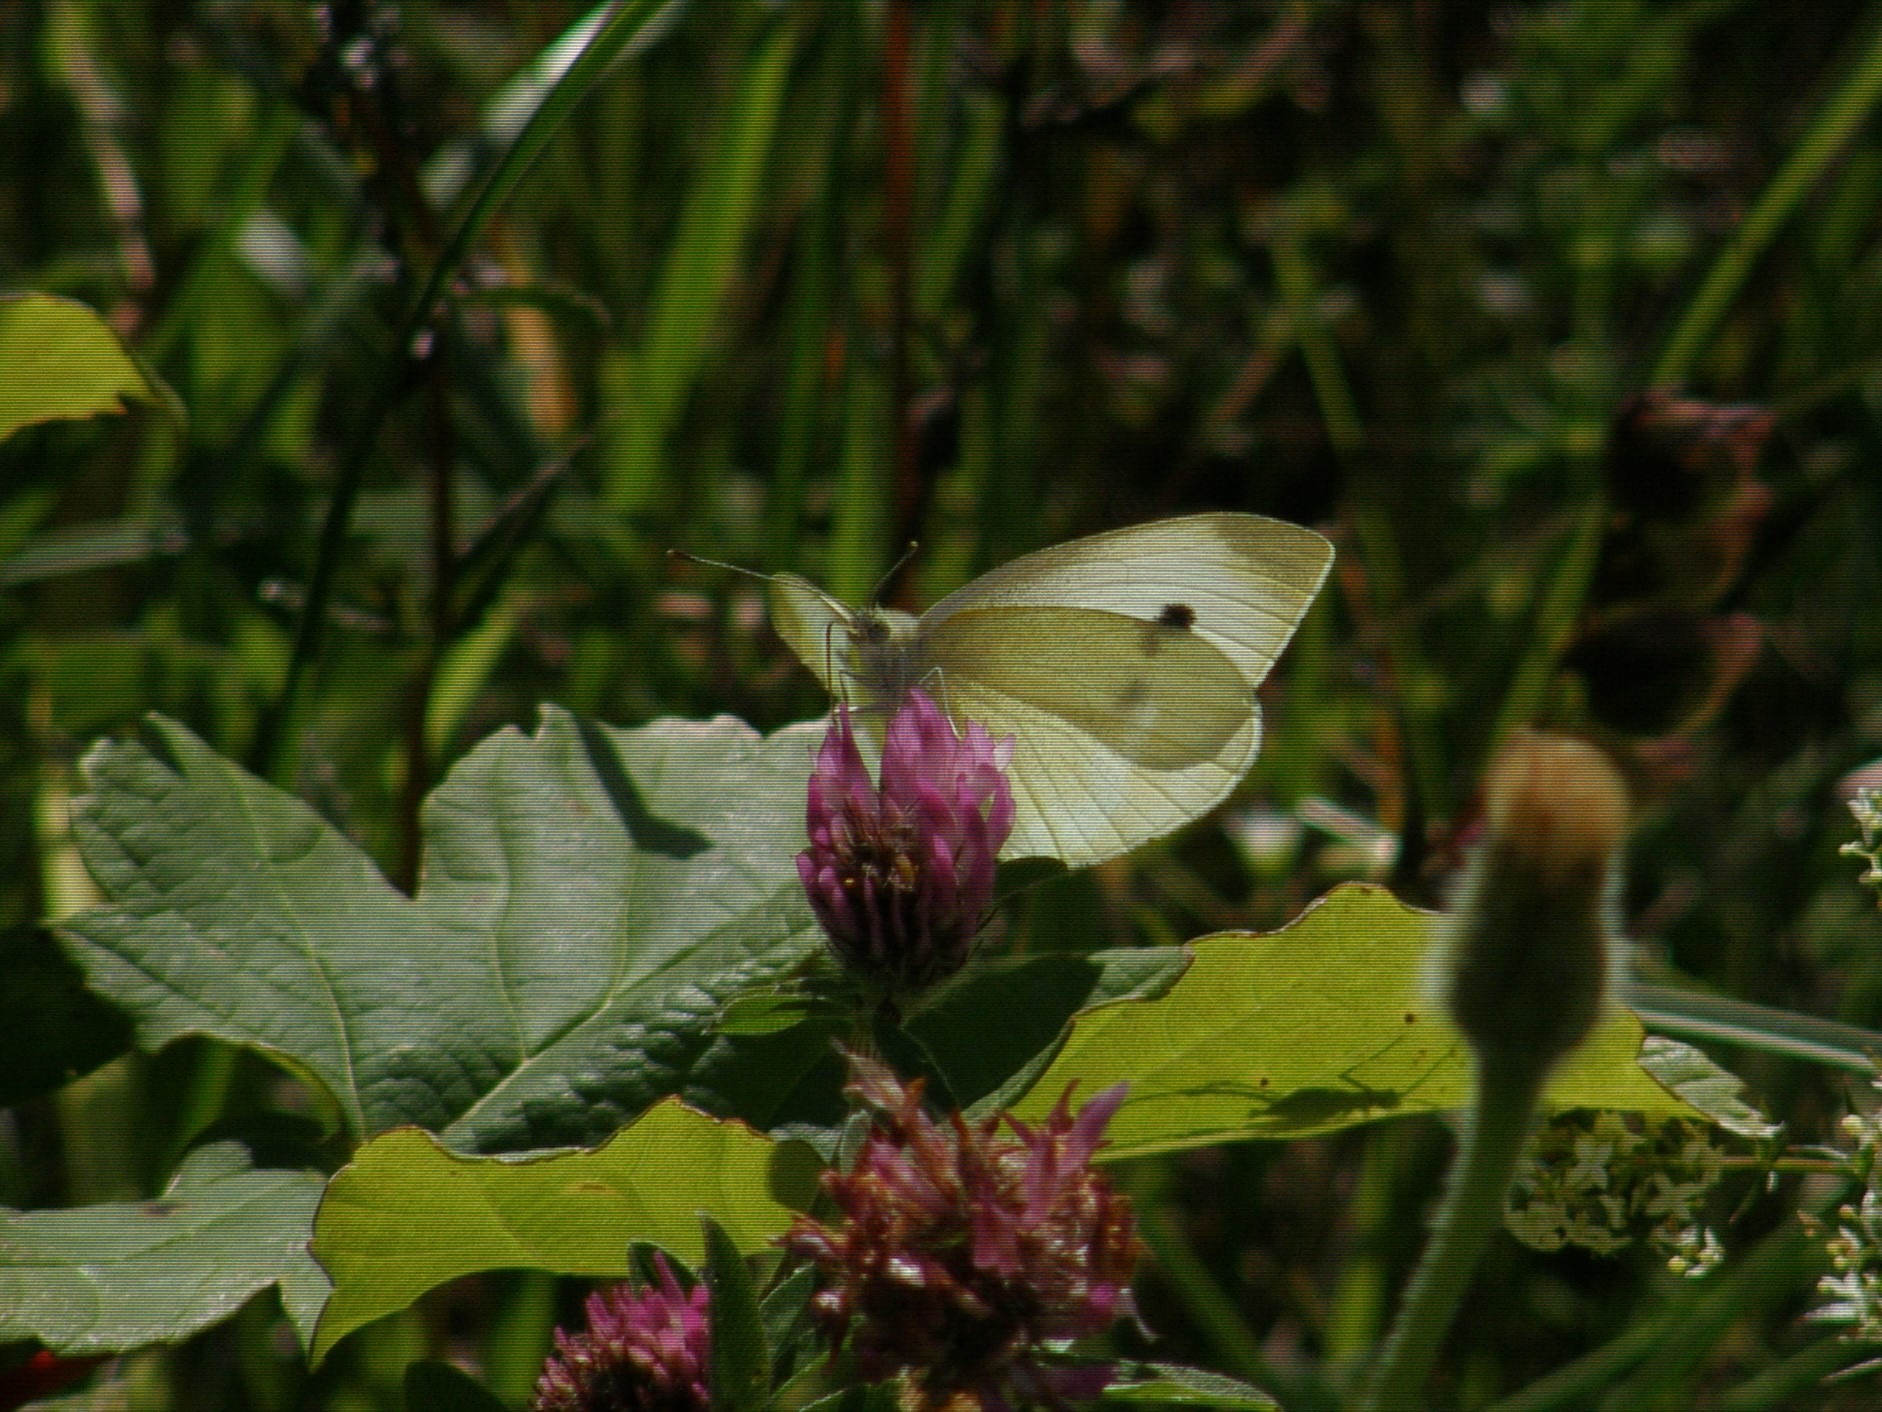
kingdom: Animalia
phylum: Arthropoda
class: Insecta
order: Lepidoptera
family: Pieridae
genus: Pieris
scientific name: Pieris rapae
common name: Lille kålsommerfugl
